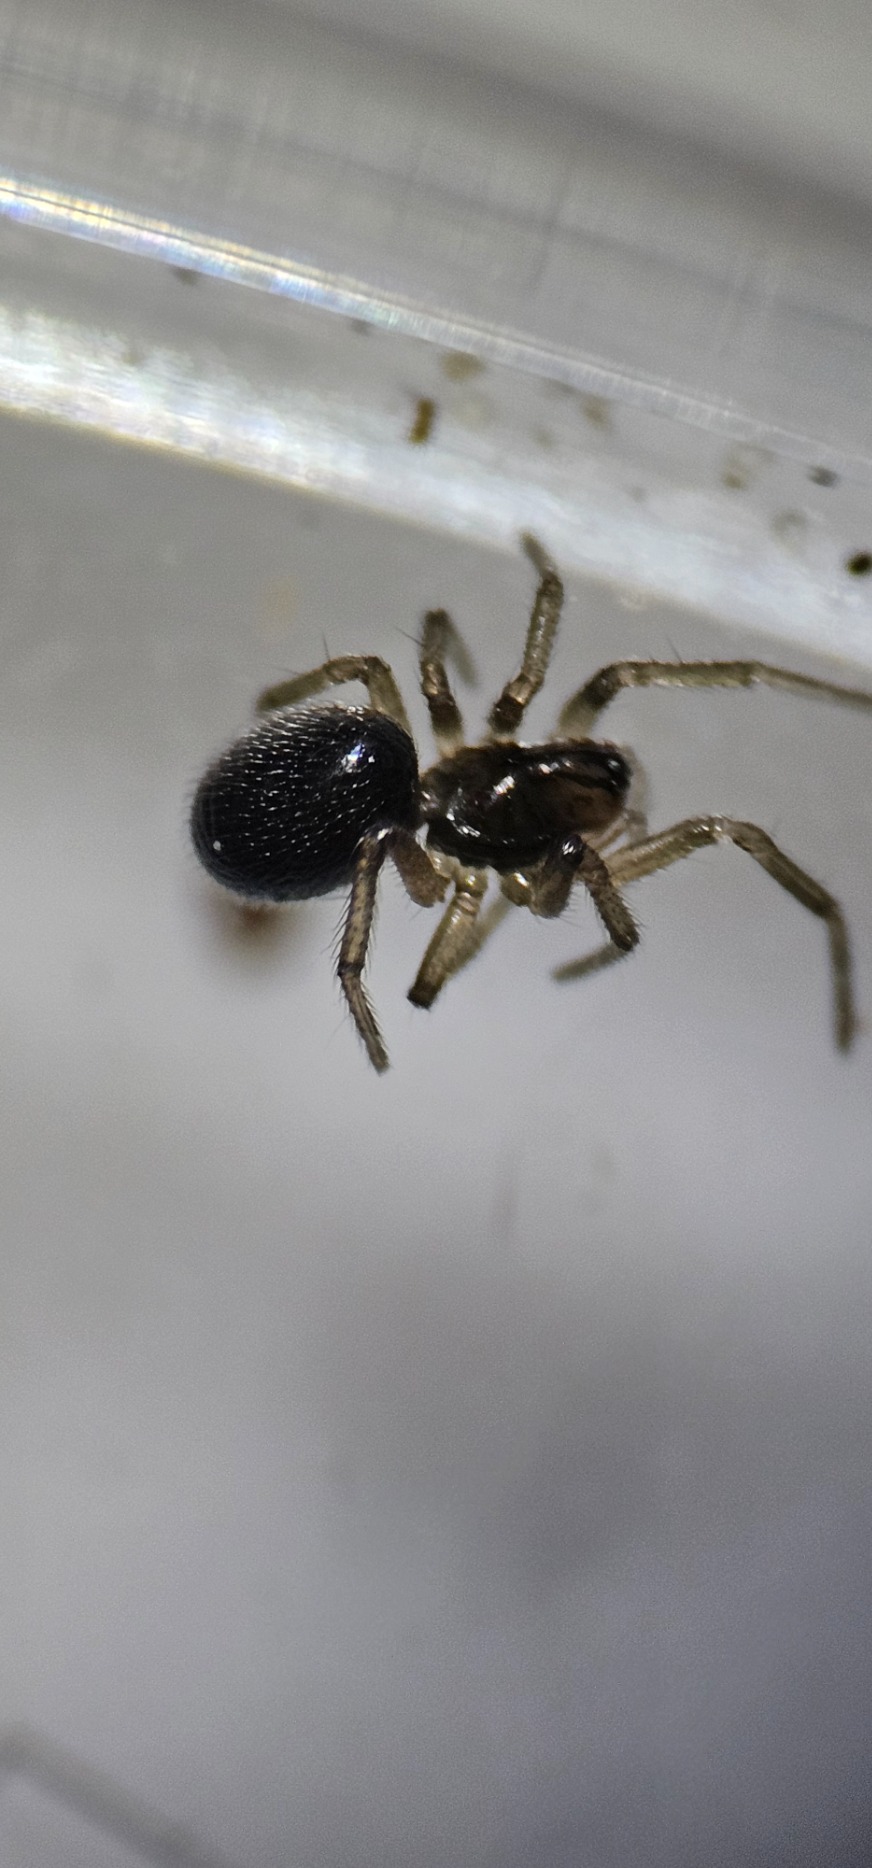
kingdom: Animalia
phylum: Arthropoda
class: Arachnida
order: Araneae
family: Linyphiidae
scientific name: Linyphiidae
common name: Tæppespindere
